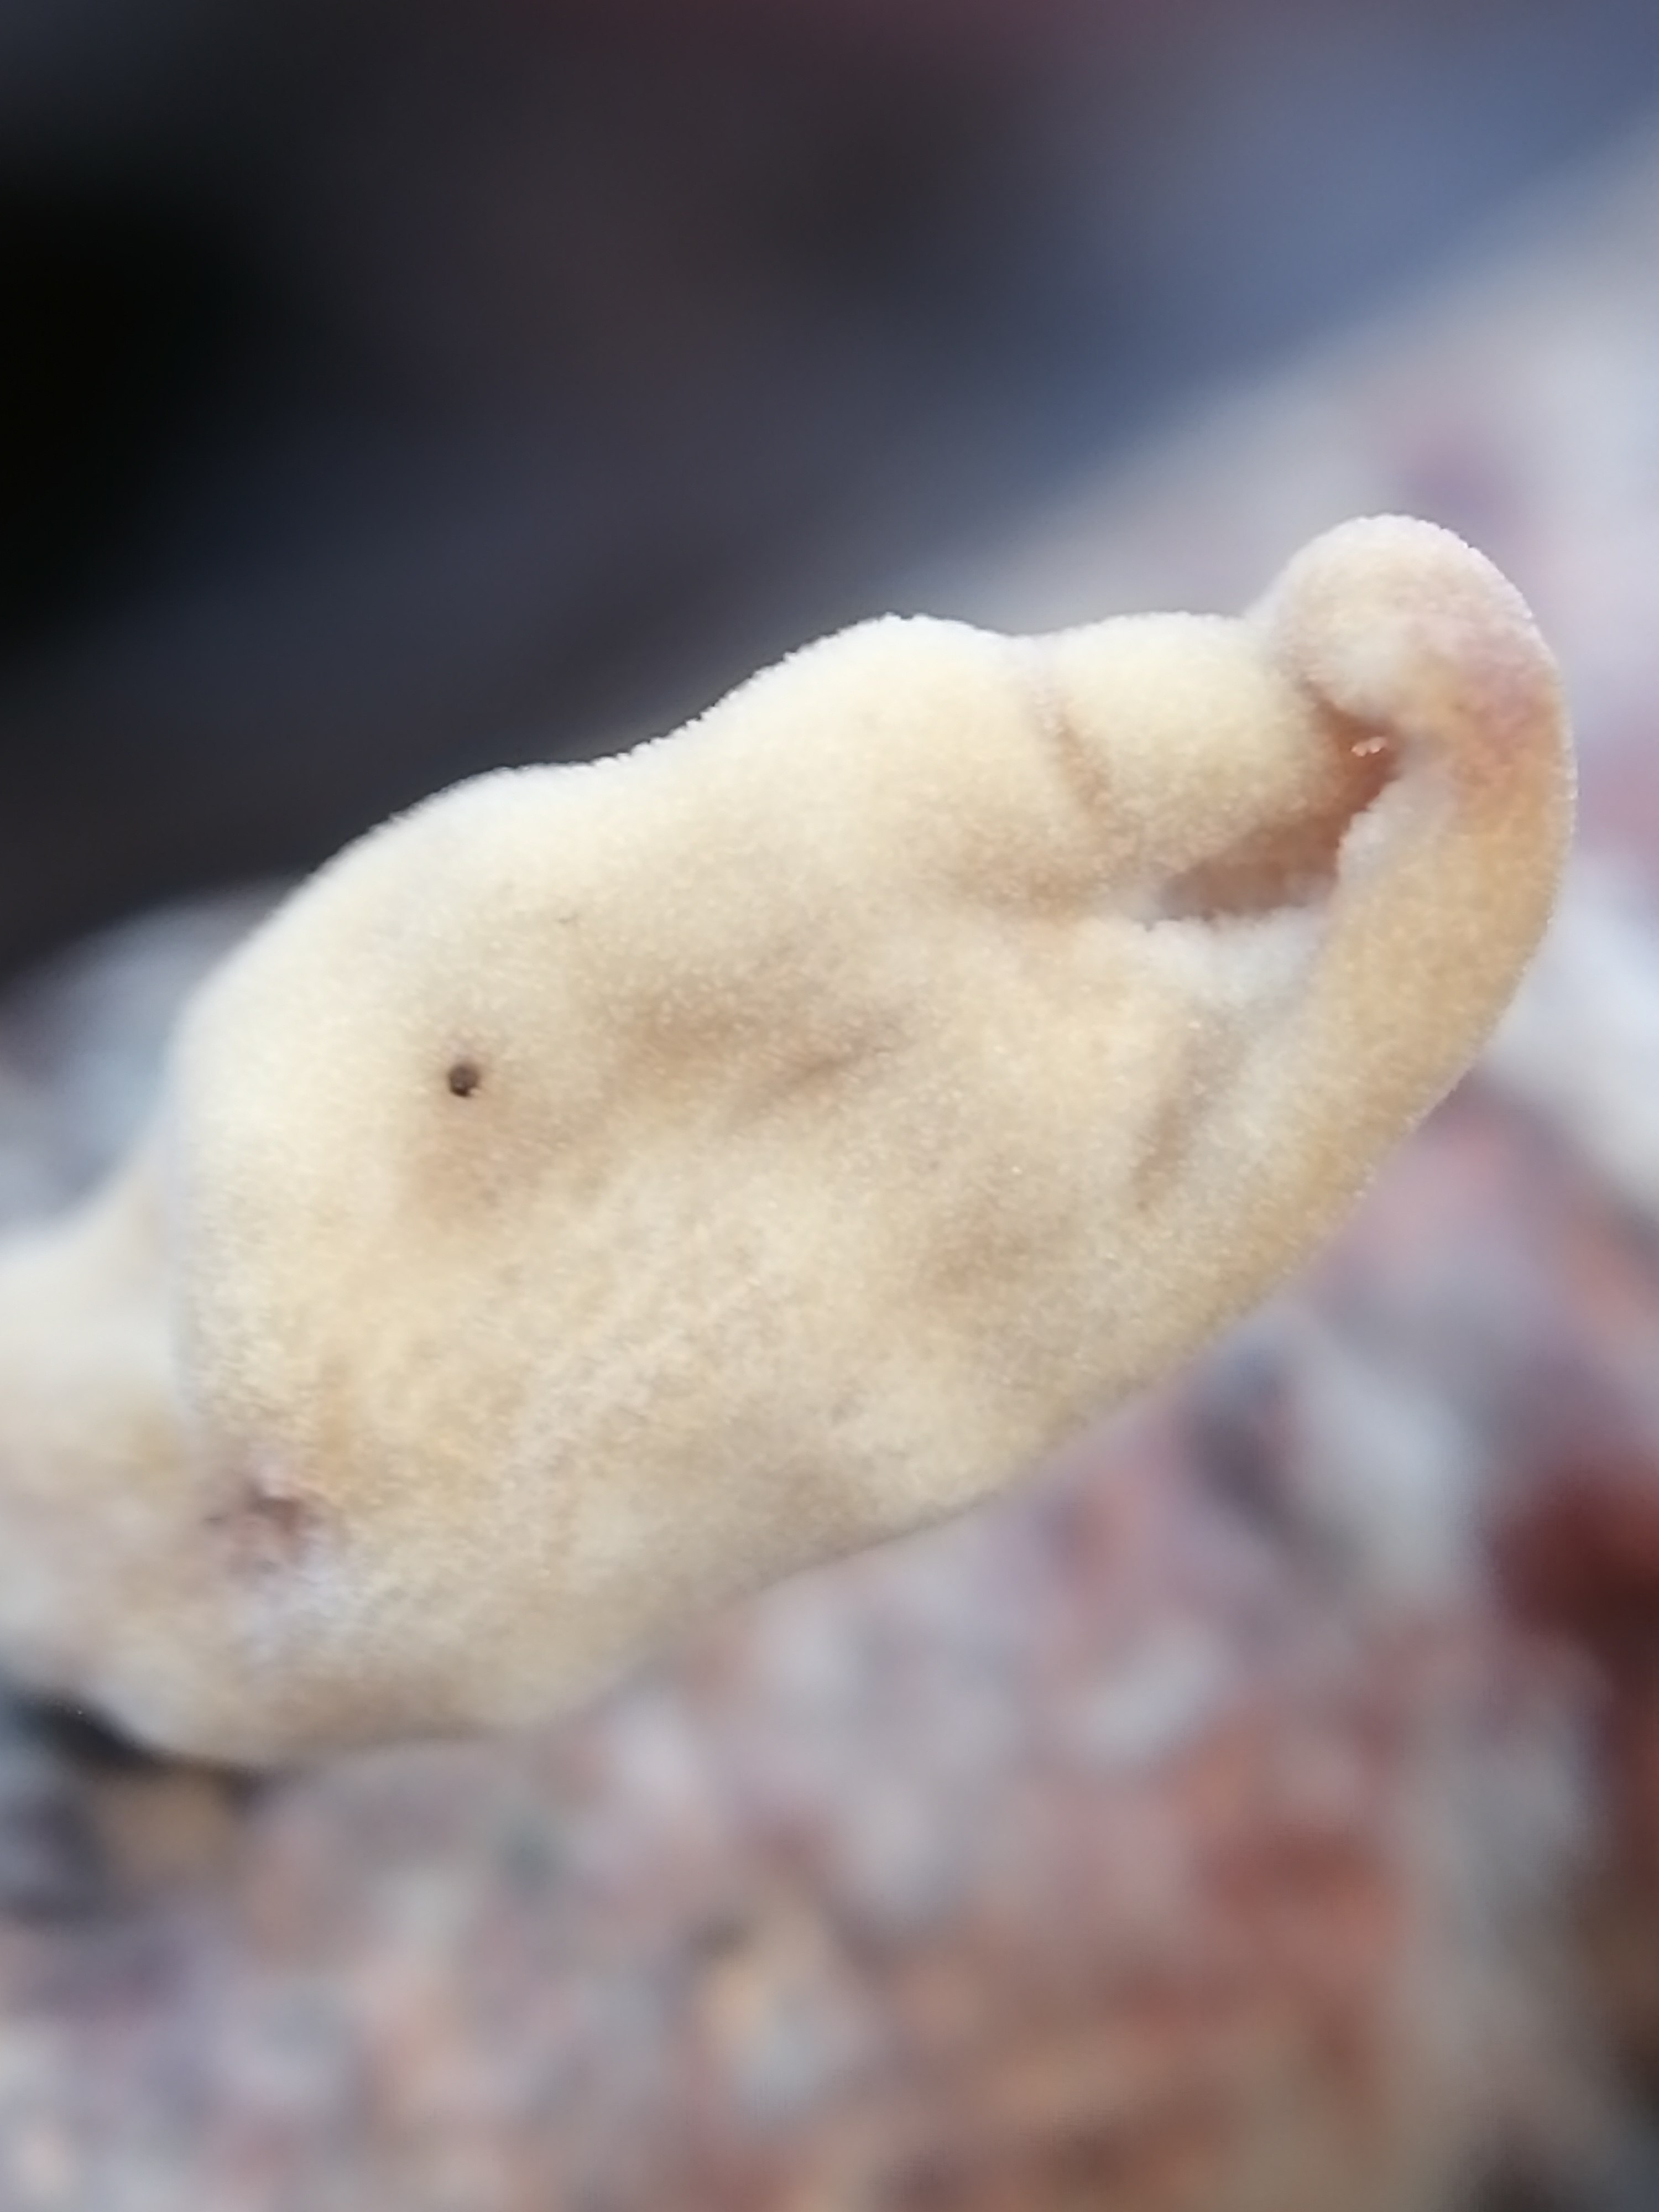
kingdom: Fungi
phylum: Basidiomycota
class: Agaricomycetes
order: Agaricales
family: Typhulaceae
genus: Typhula
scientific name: Typhula contorta
